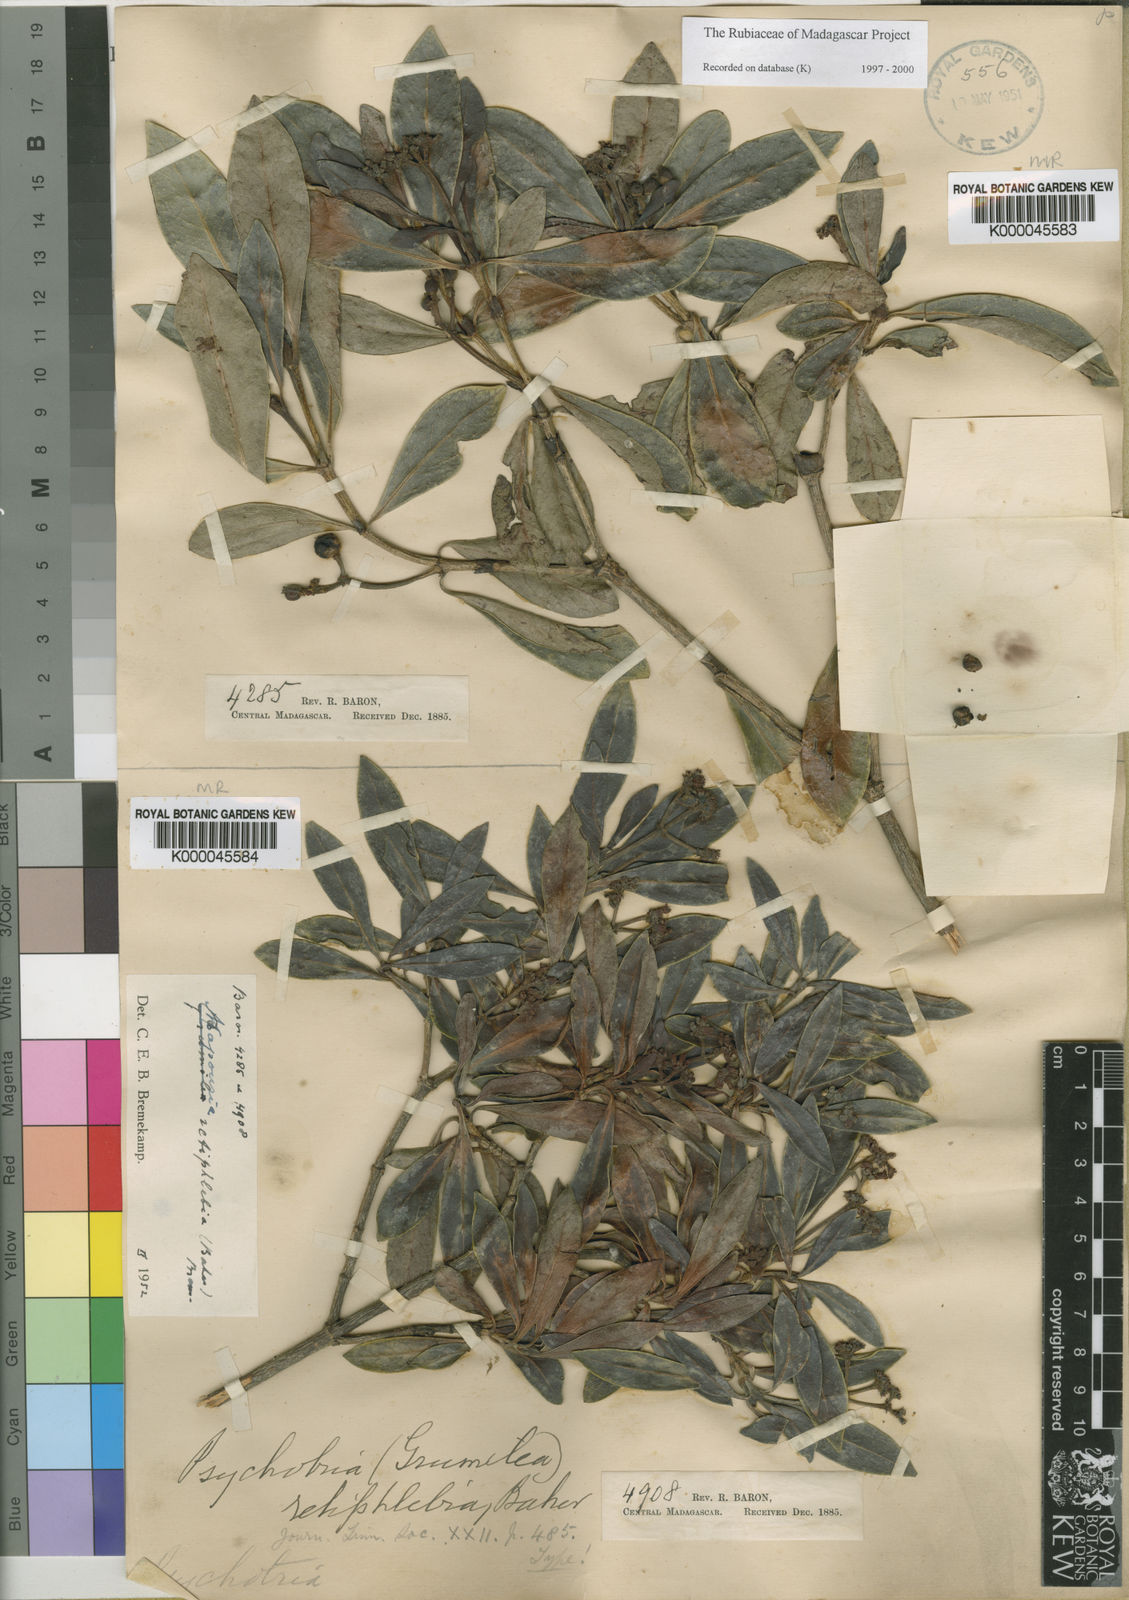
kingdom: Plantae
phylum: Tracheophyta
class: Magnoliopsida
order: Gentianales
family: Rubiaceae
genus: Psychotria
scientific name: Psychotria retiphlebia
